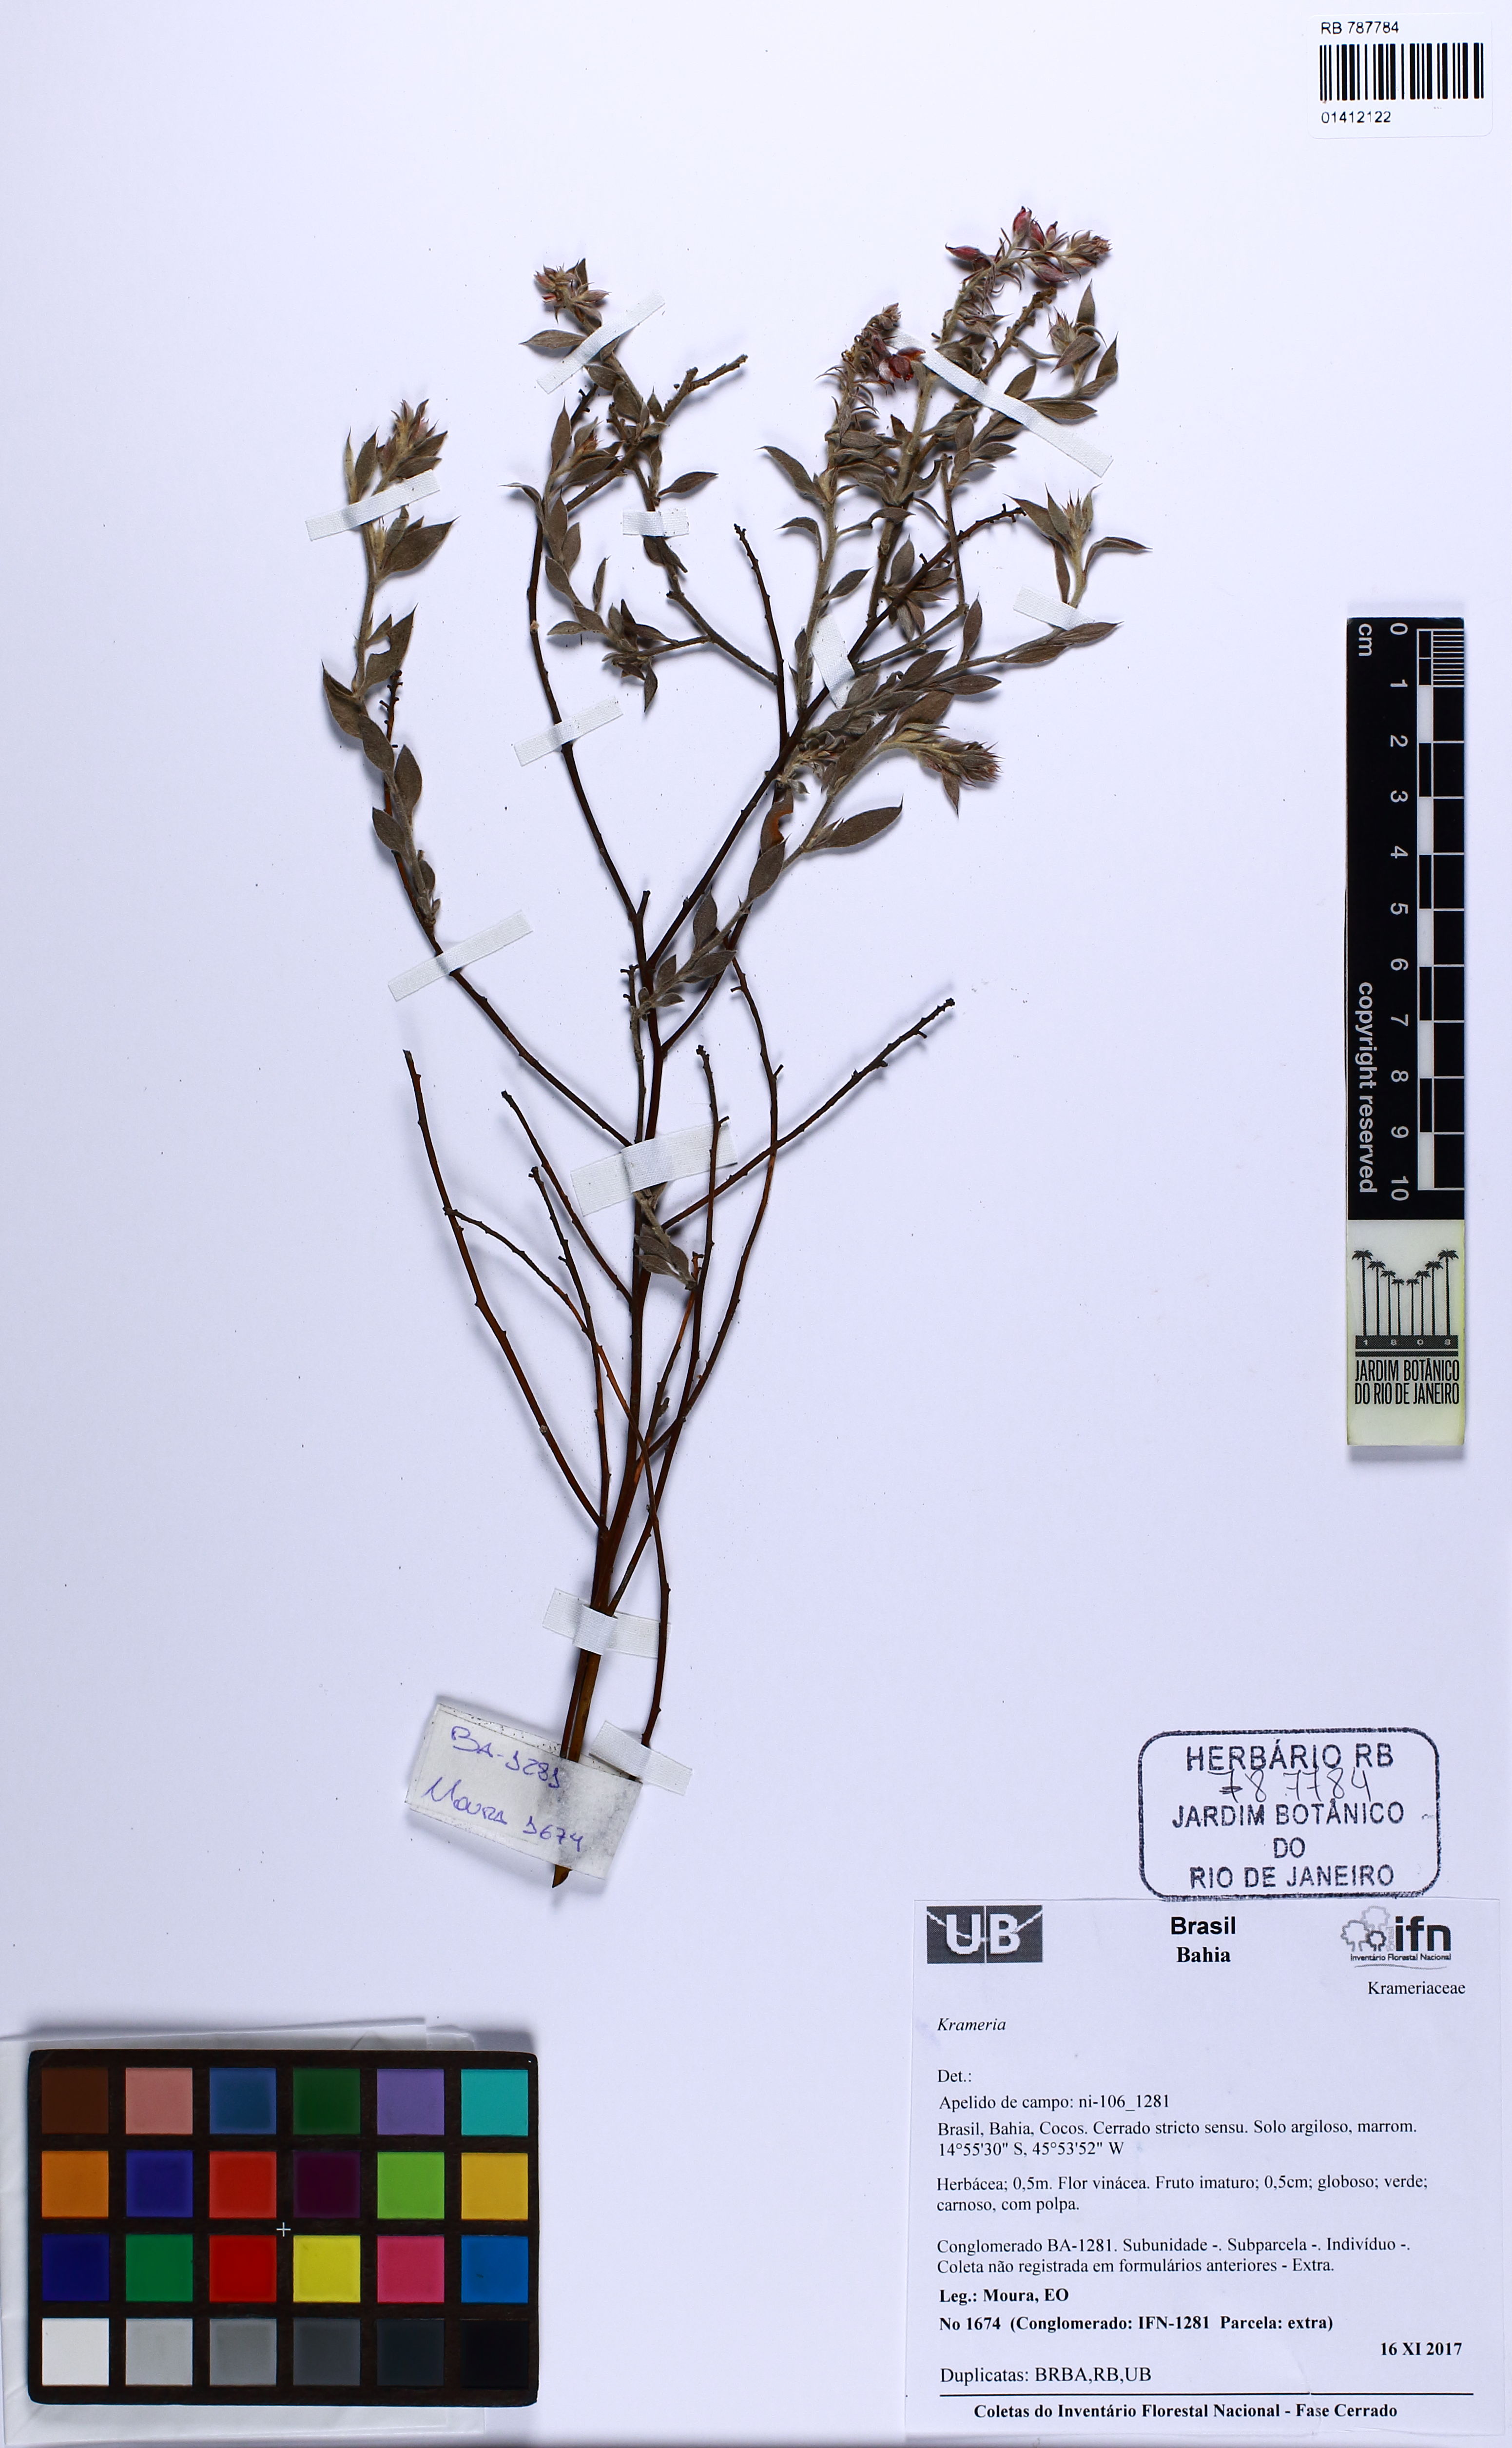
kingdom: Plantae
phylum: Tracheophyta
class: Magnoliopsida
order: Zygophyllales
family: Krameriaceae
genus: Krameria
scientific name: Krameria
